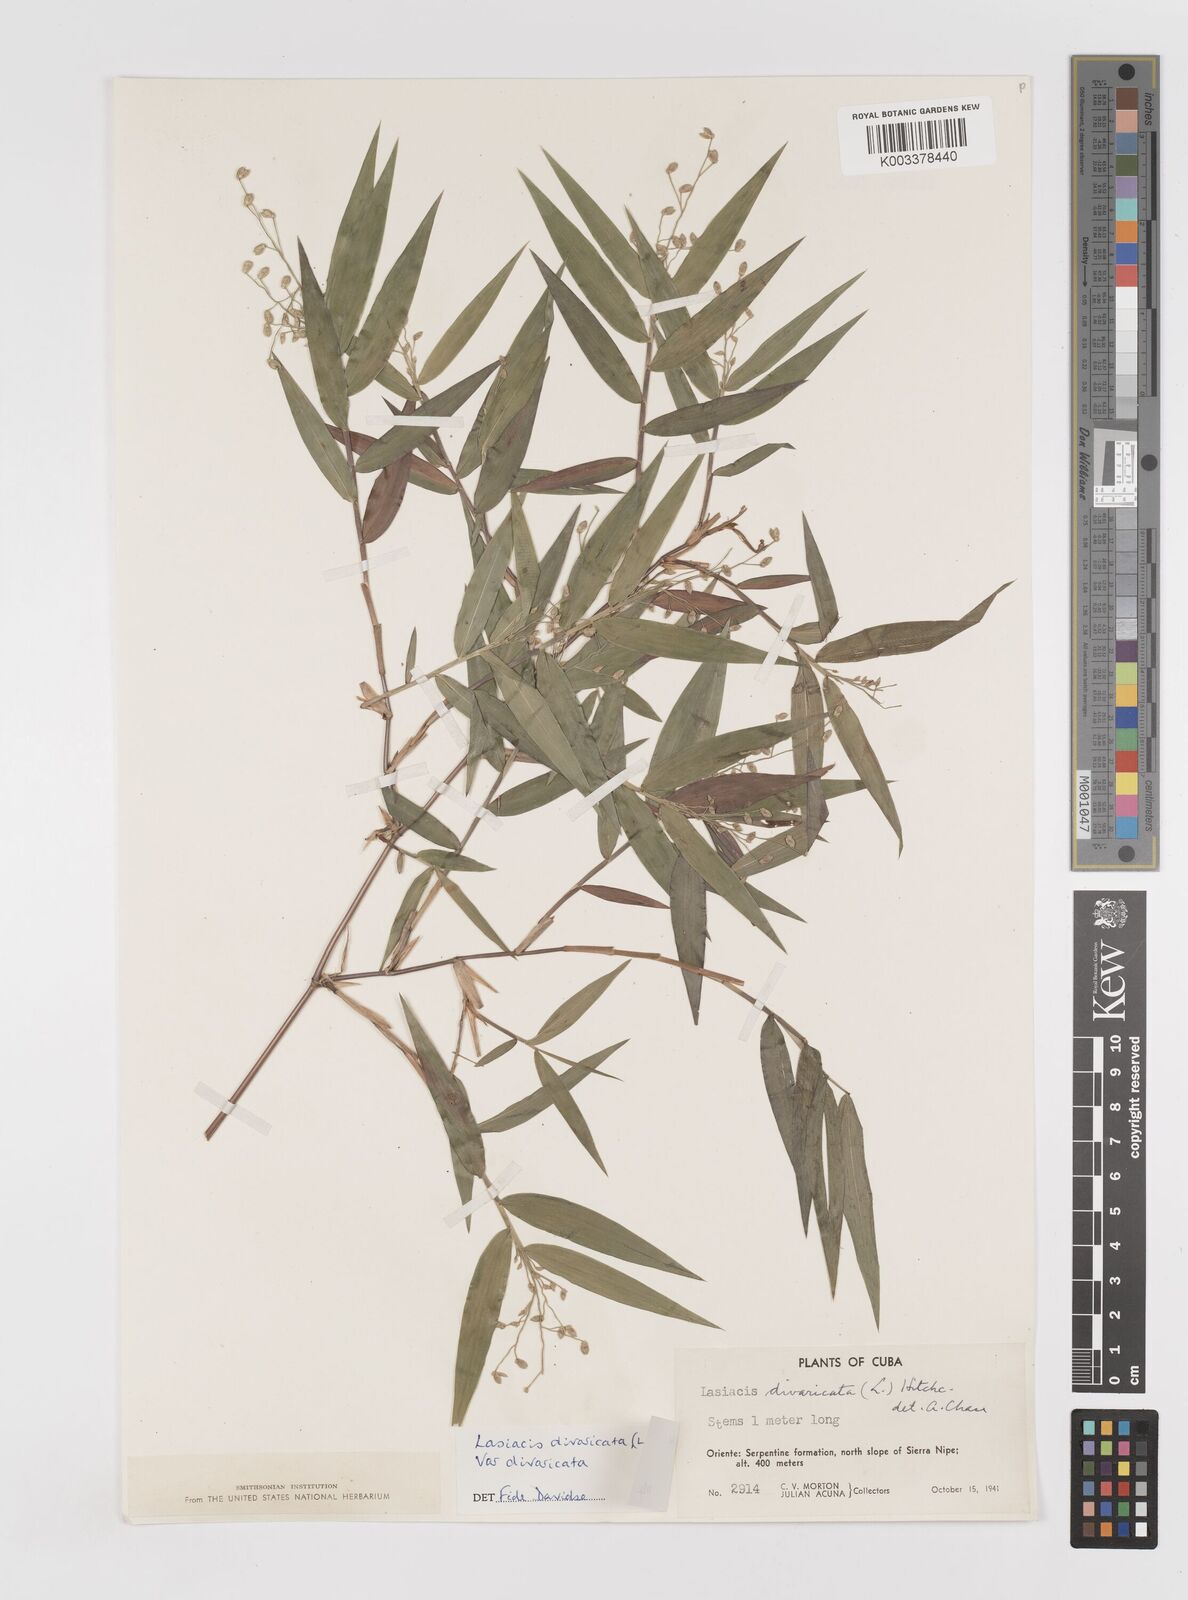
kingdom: Plantae
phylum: Tracheophyta
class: Liliopsida
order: Poales
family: Poaceae
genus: Lasiacis
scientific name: Lasiacis divaricata
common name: Smallcane
